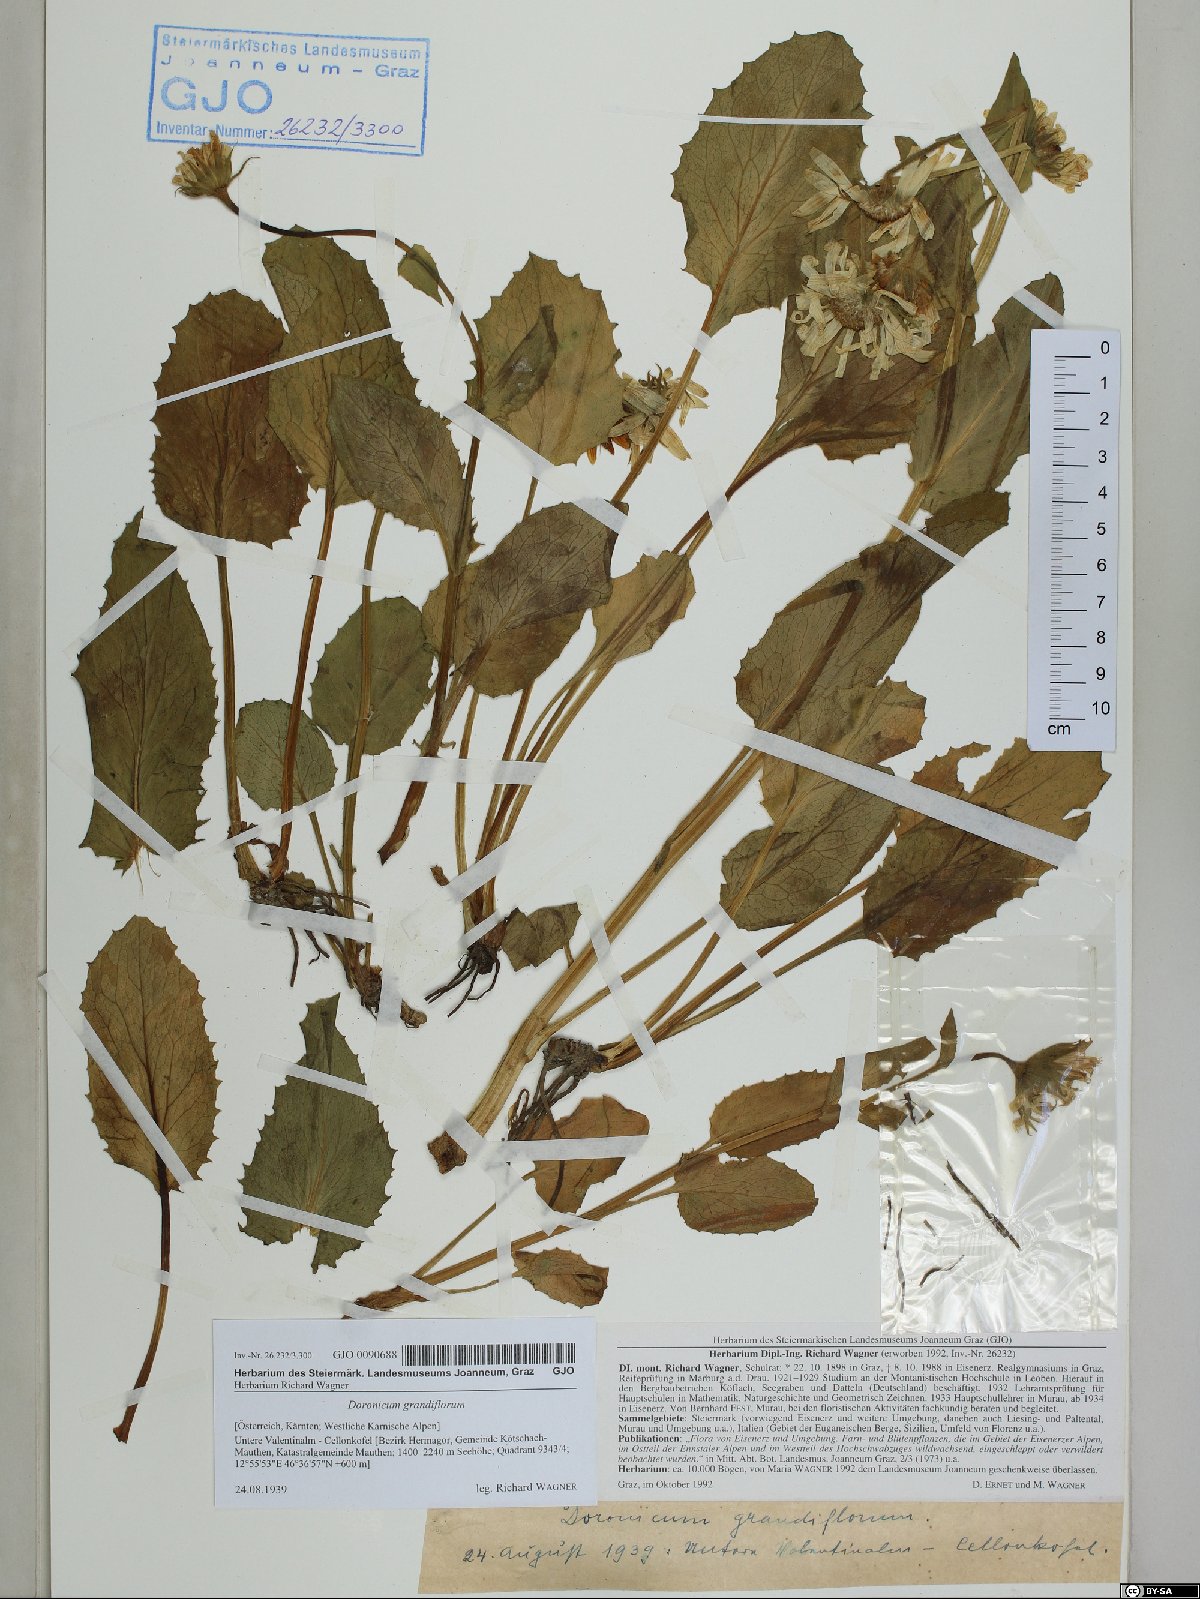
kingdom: Plantae
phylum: Tracheophyta
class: Magnoliopsida
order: Asterales
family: Asteraceae
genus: Doronicum
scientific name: Doronicum grandiflorum
